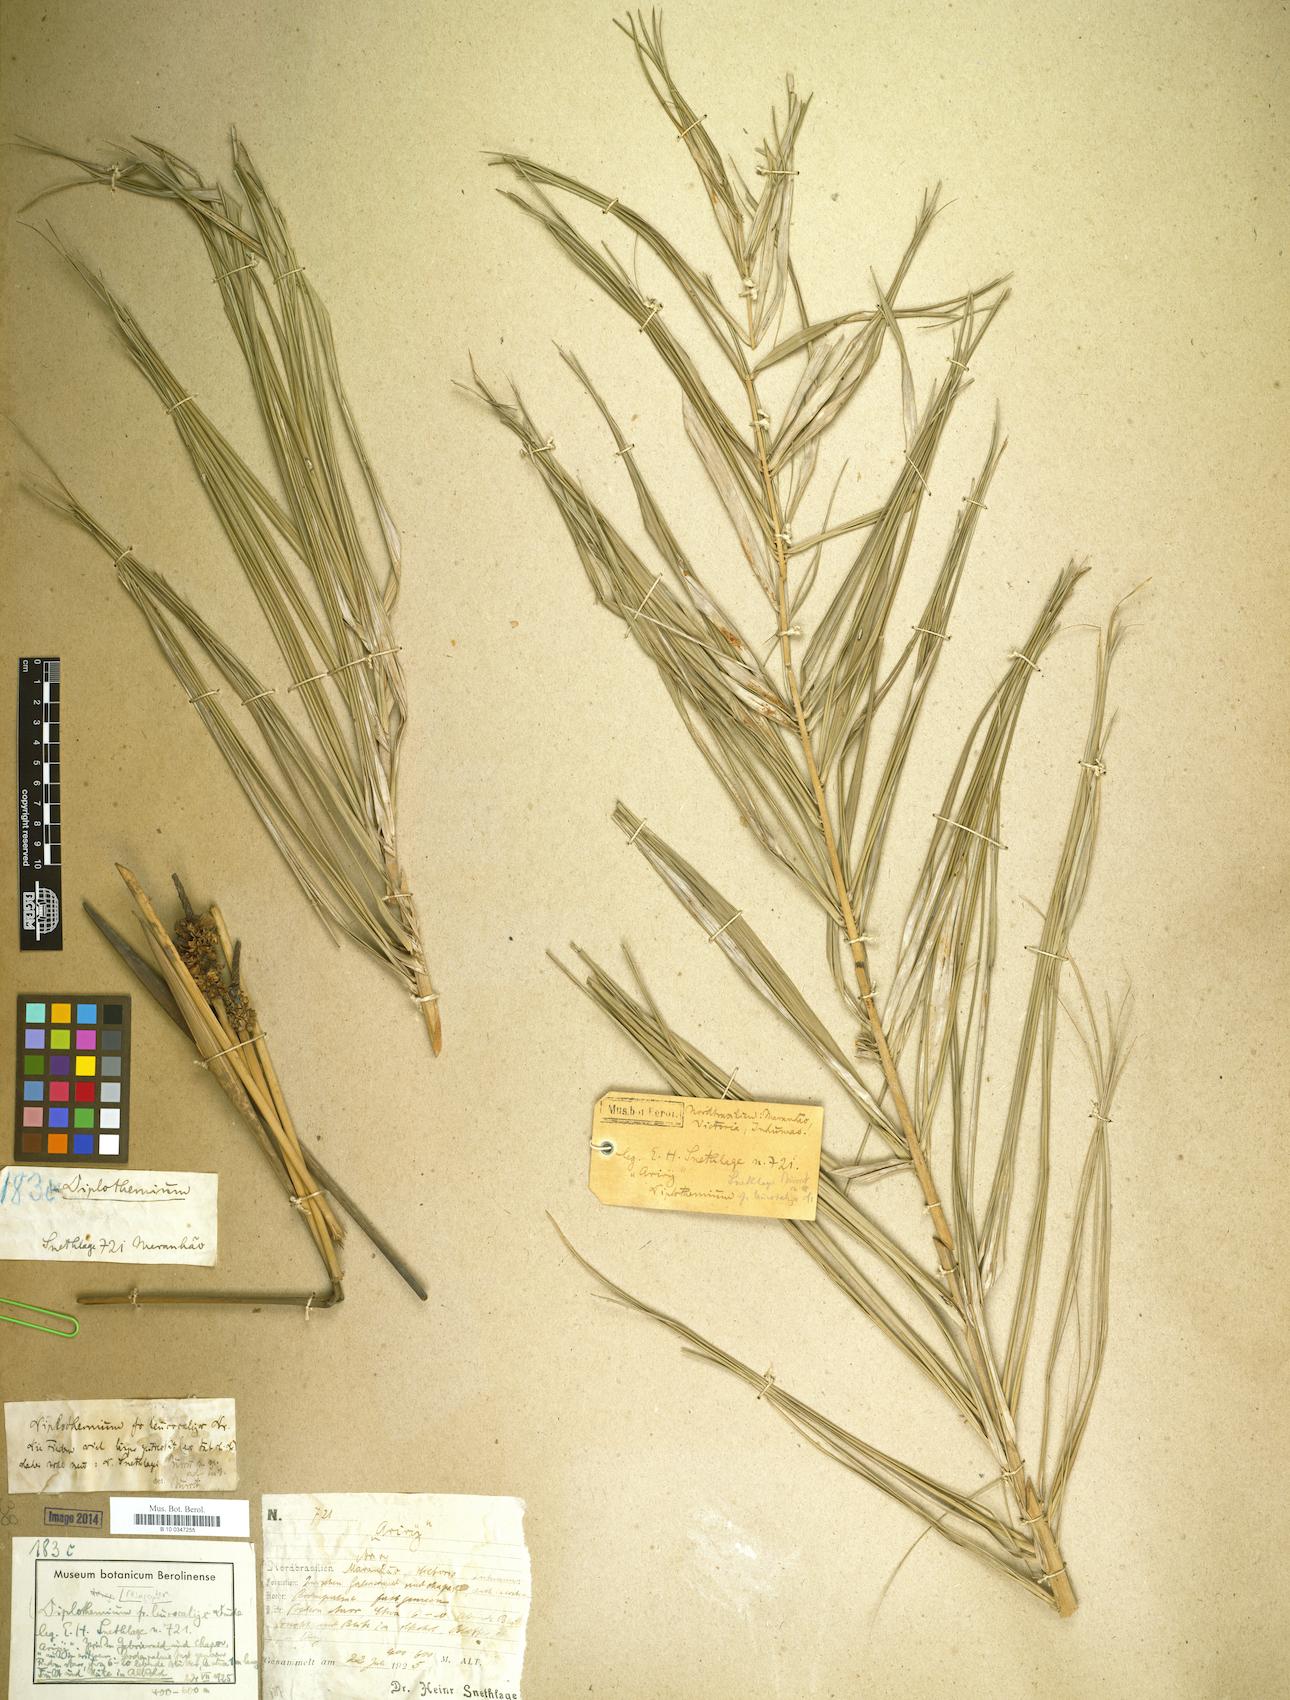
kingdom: Plantae
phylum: Tracheophyta
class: Liliopsida
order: Arecales
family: Arecaceae
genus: Allagoptera
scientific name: Allagoptera
